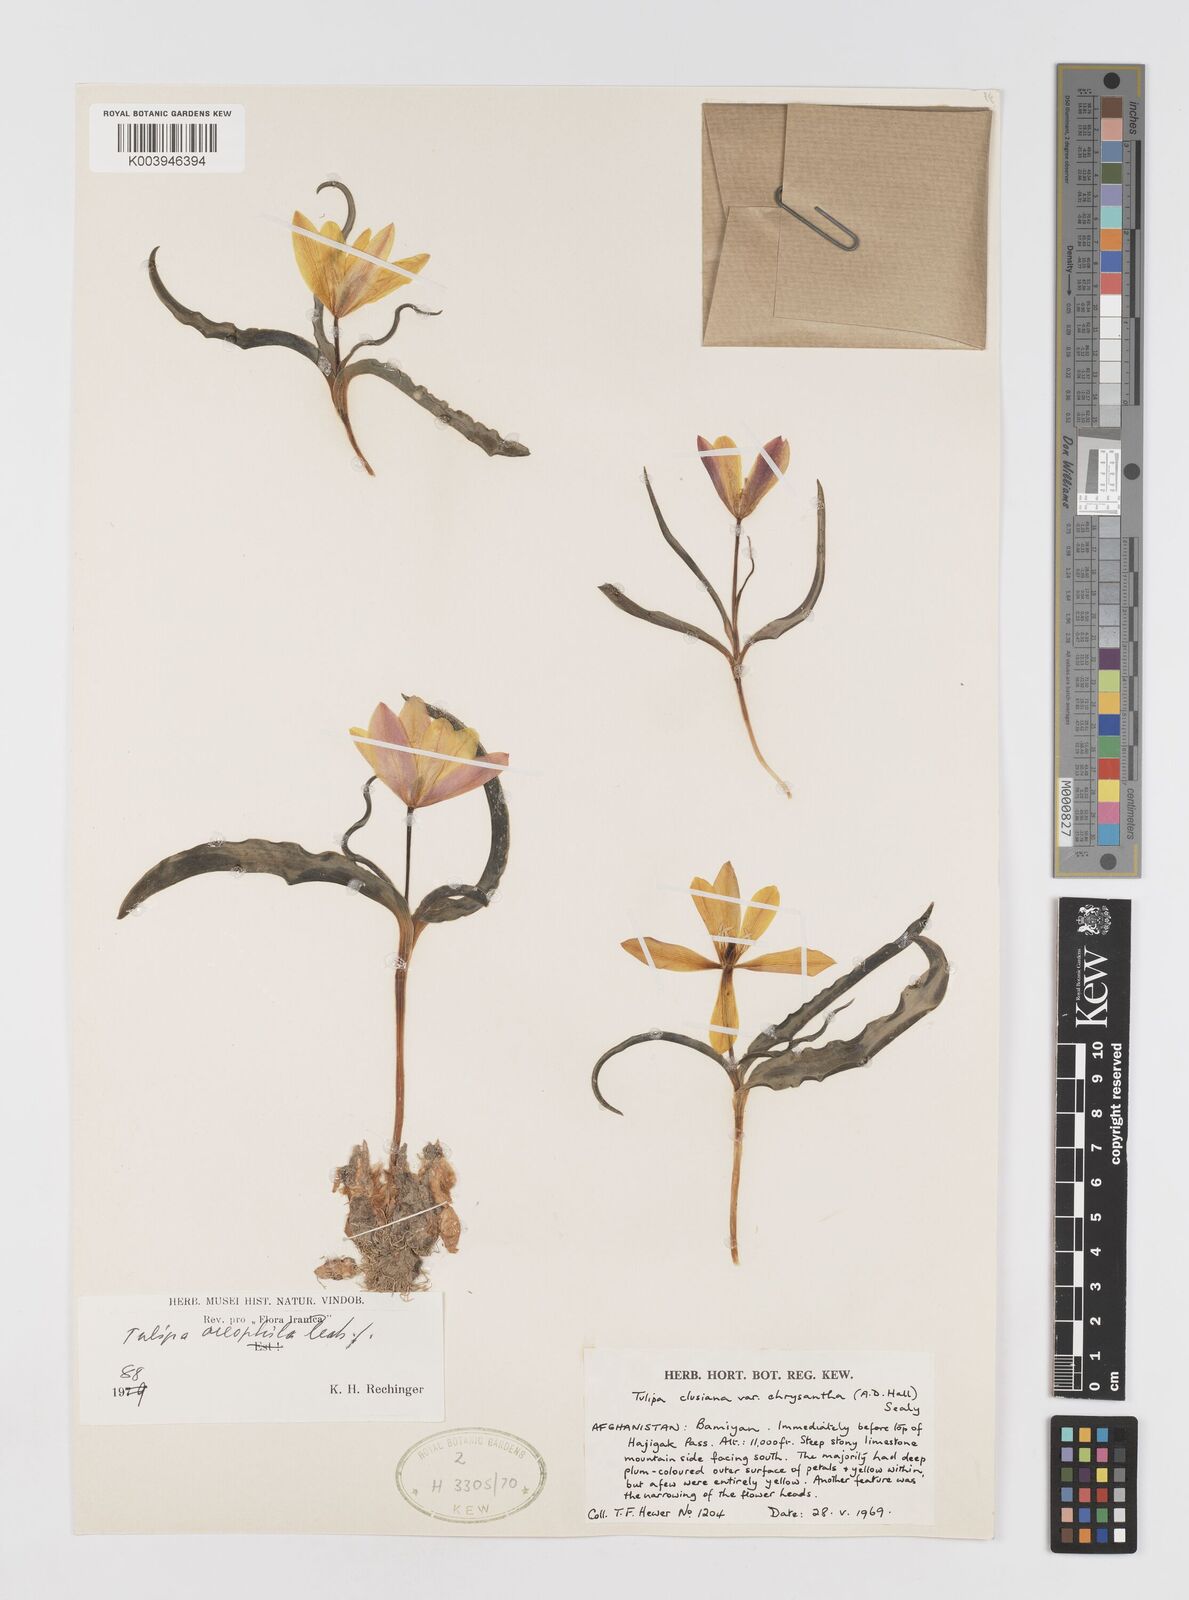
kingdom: Plantae
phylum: Tracheophyta
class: Liliopsida
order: Liliales
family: Liliaceae
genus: Tulipa
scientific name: Tulipa clusiana
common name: Lady tulip
